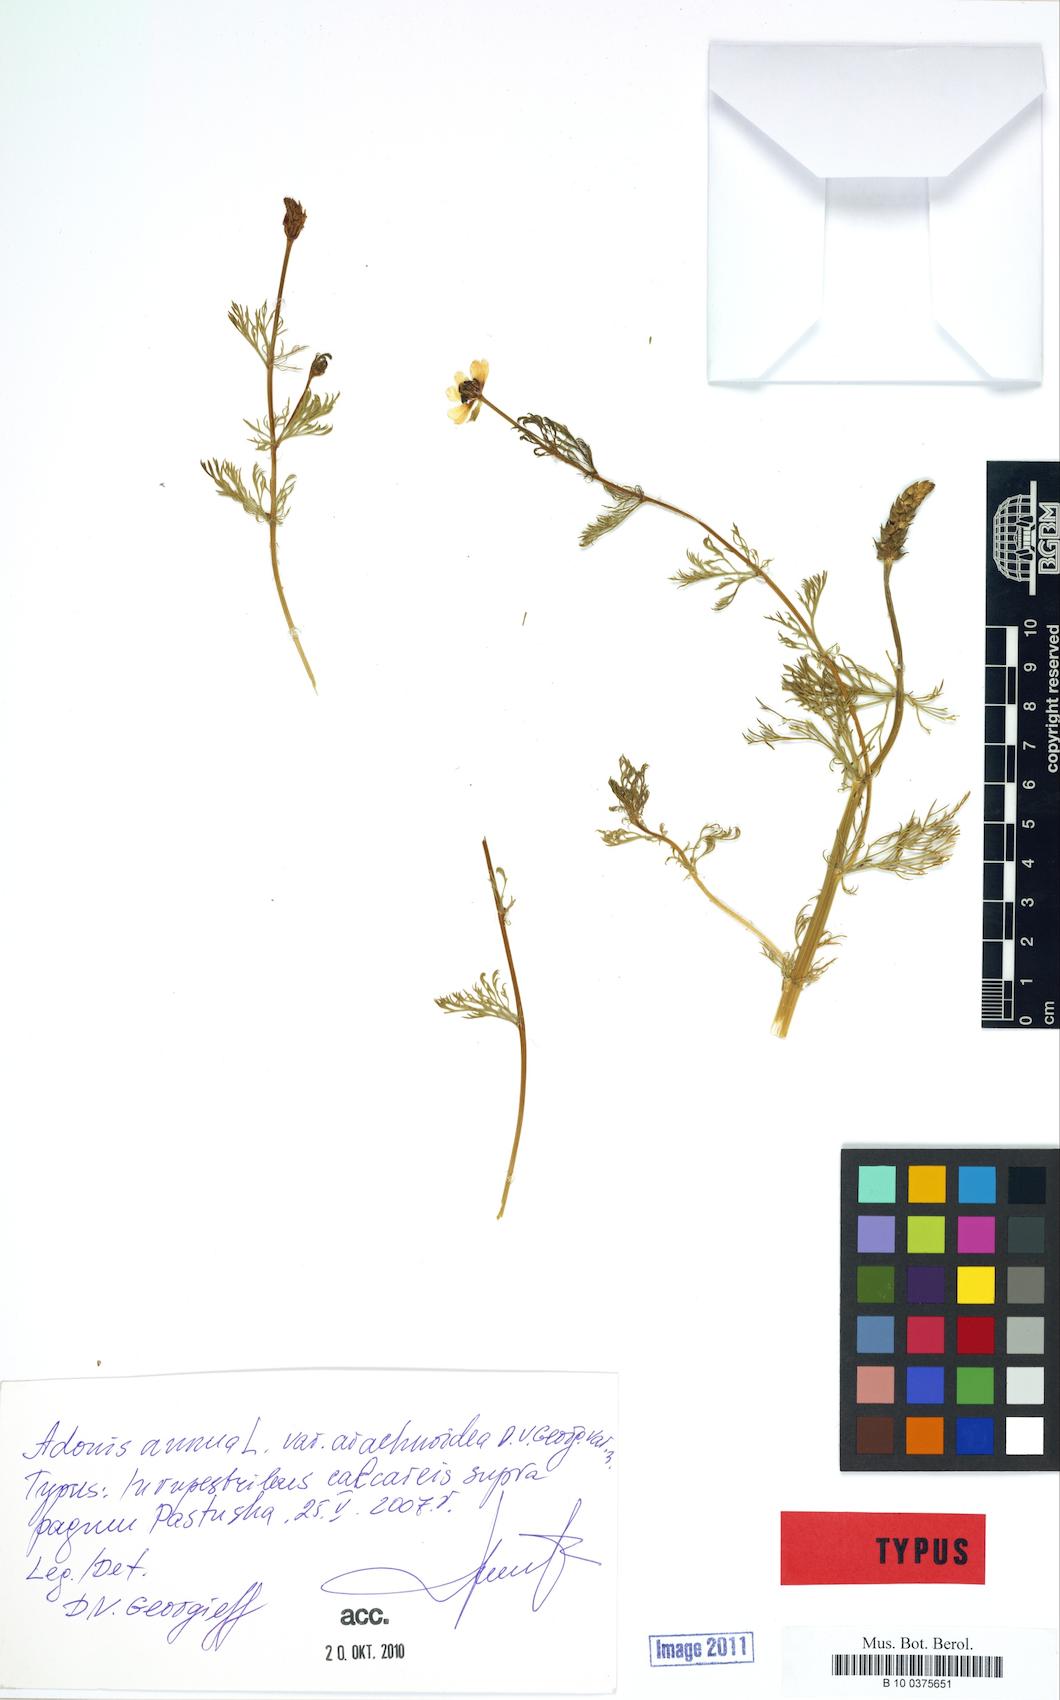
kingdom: Plantae
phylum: Tracheophyta
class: Magnoliopsida
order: Ranunculales
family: Ranunculaceae
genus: Adonis
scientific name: Adonis annua
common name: Pheasant's-eye
